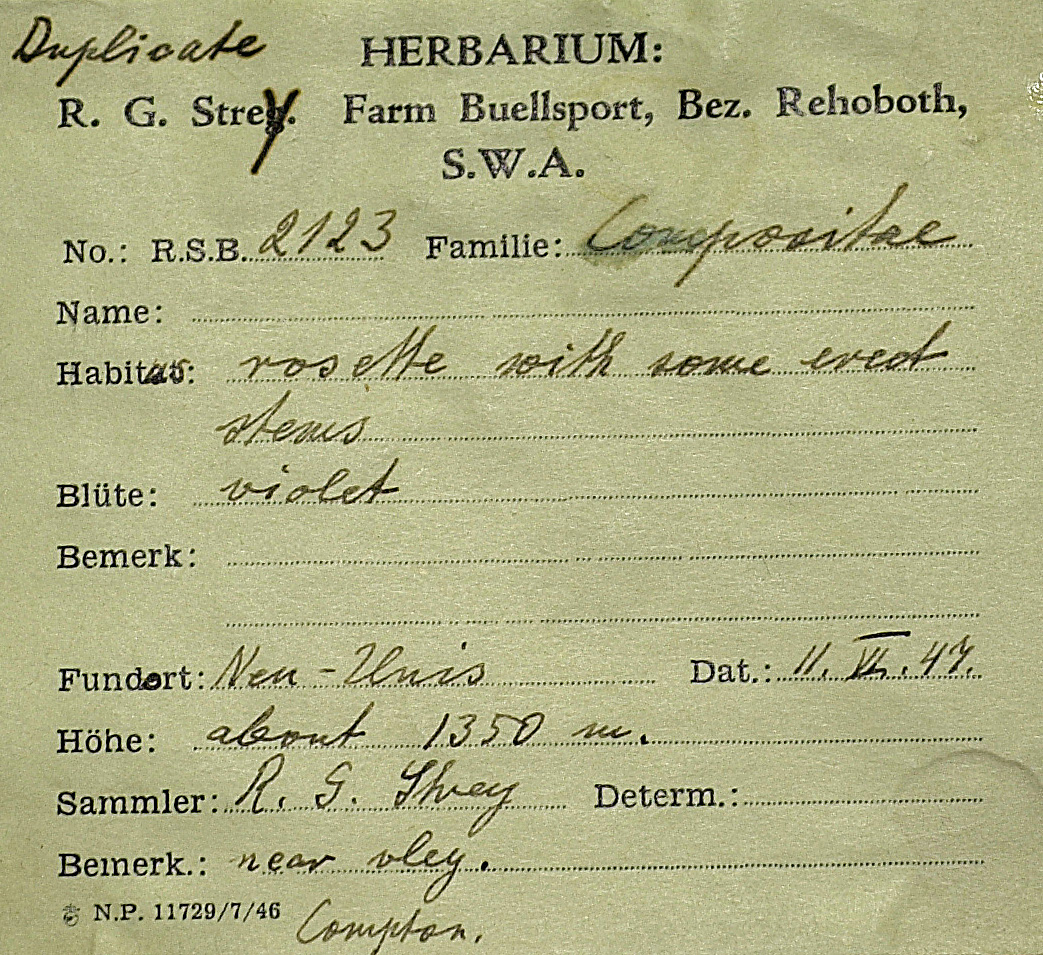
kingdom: Plantae
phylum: Tracheophyta
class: Magnoliopsida
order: Asterales
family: Asteraceae
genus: Nicolasia
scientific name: Nicolasia heterophylla
